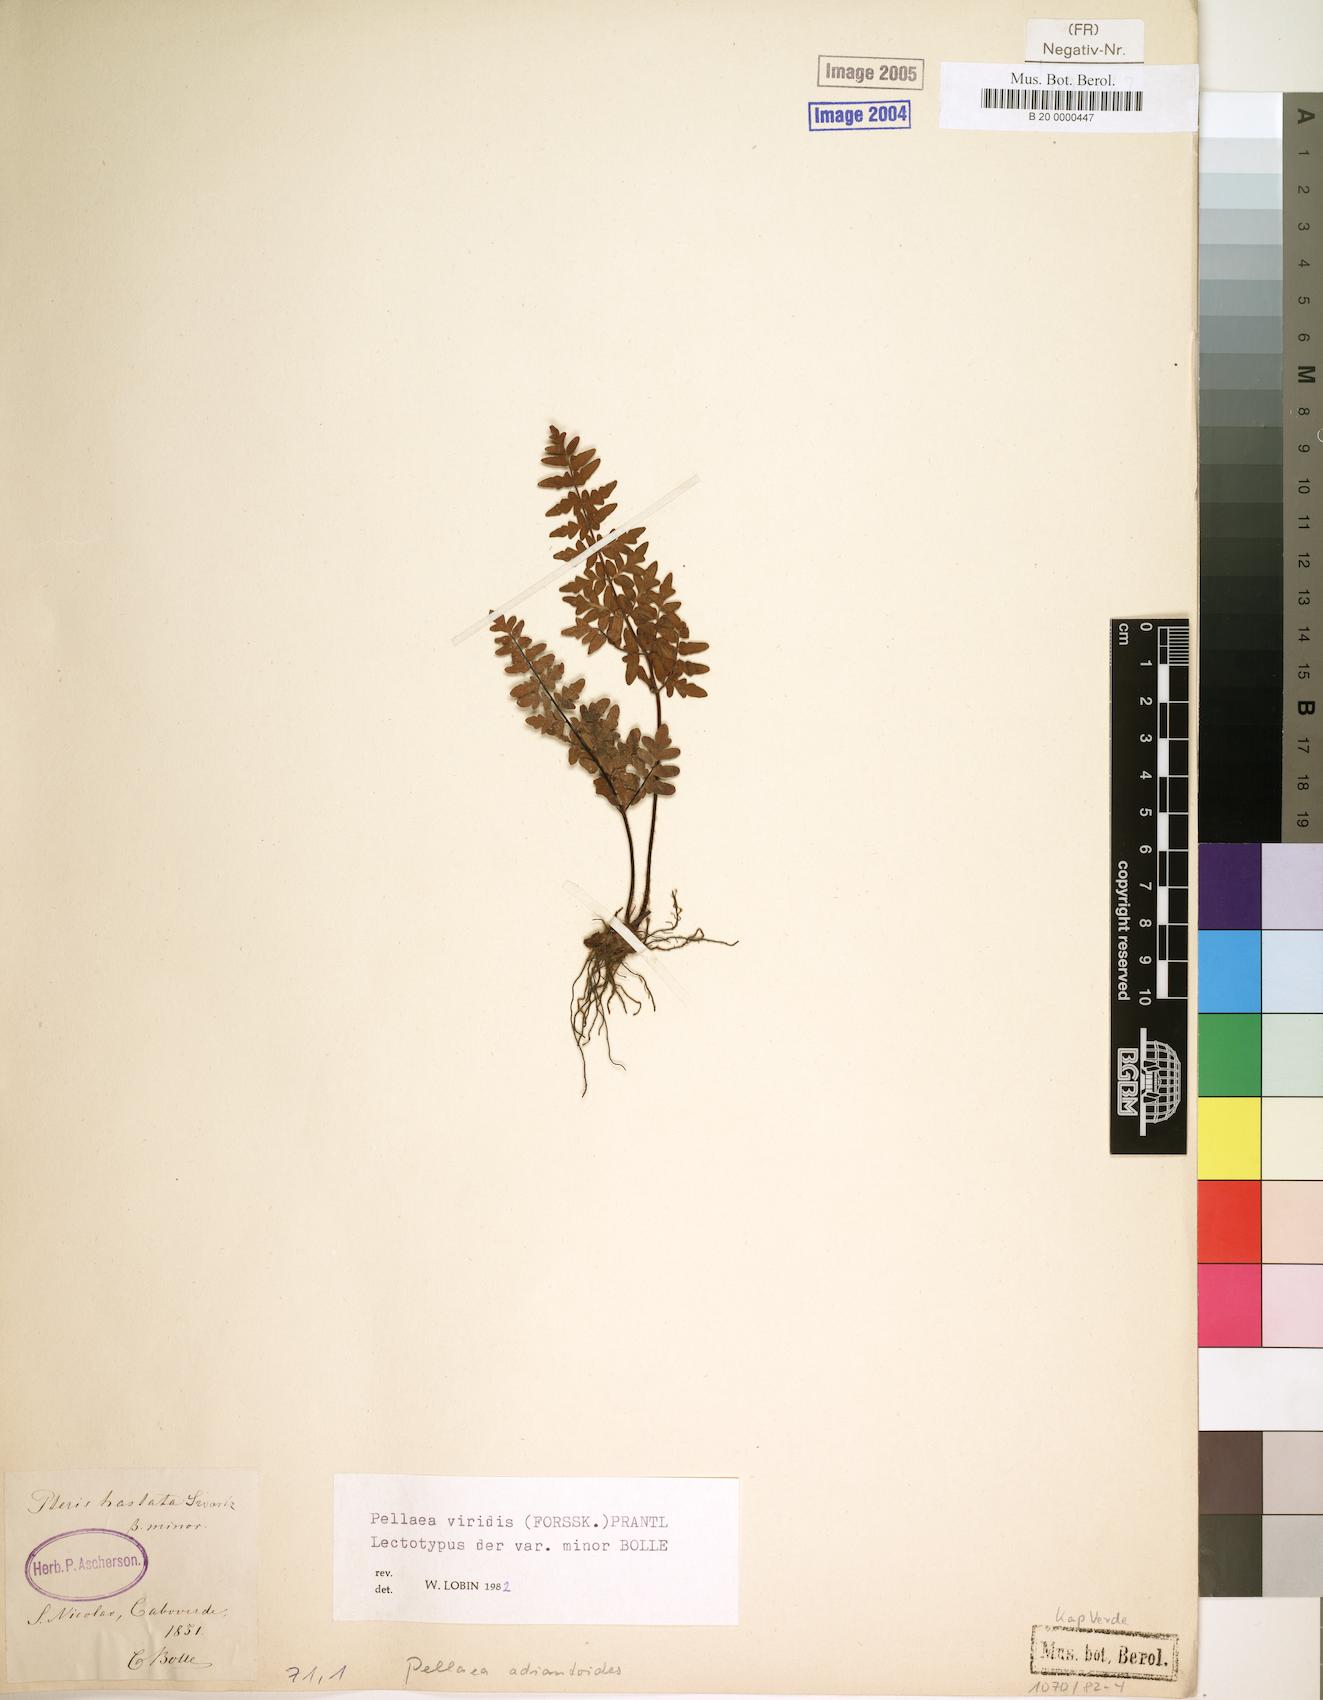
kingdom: Plantae
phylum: Tracheophyta
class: Polypodiopsida
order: Polypodiales
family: Pteridaceae
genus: Cheilanthes
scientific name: Cheilanthes viridis
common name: Green cliffbrake
